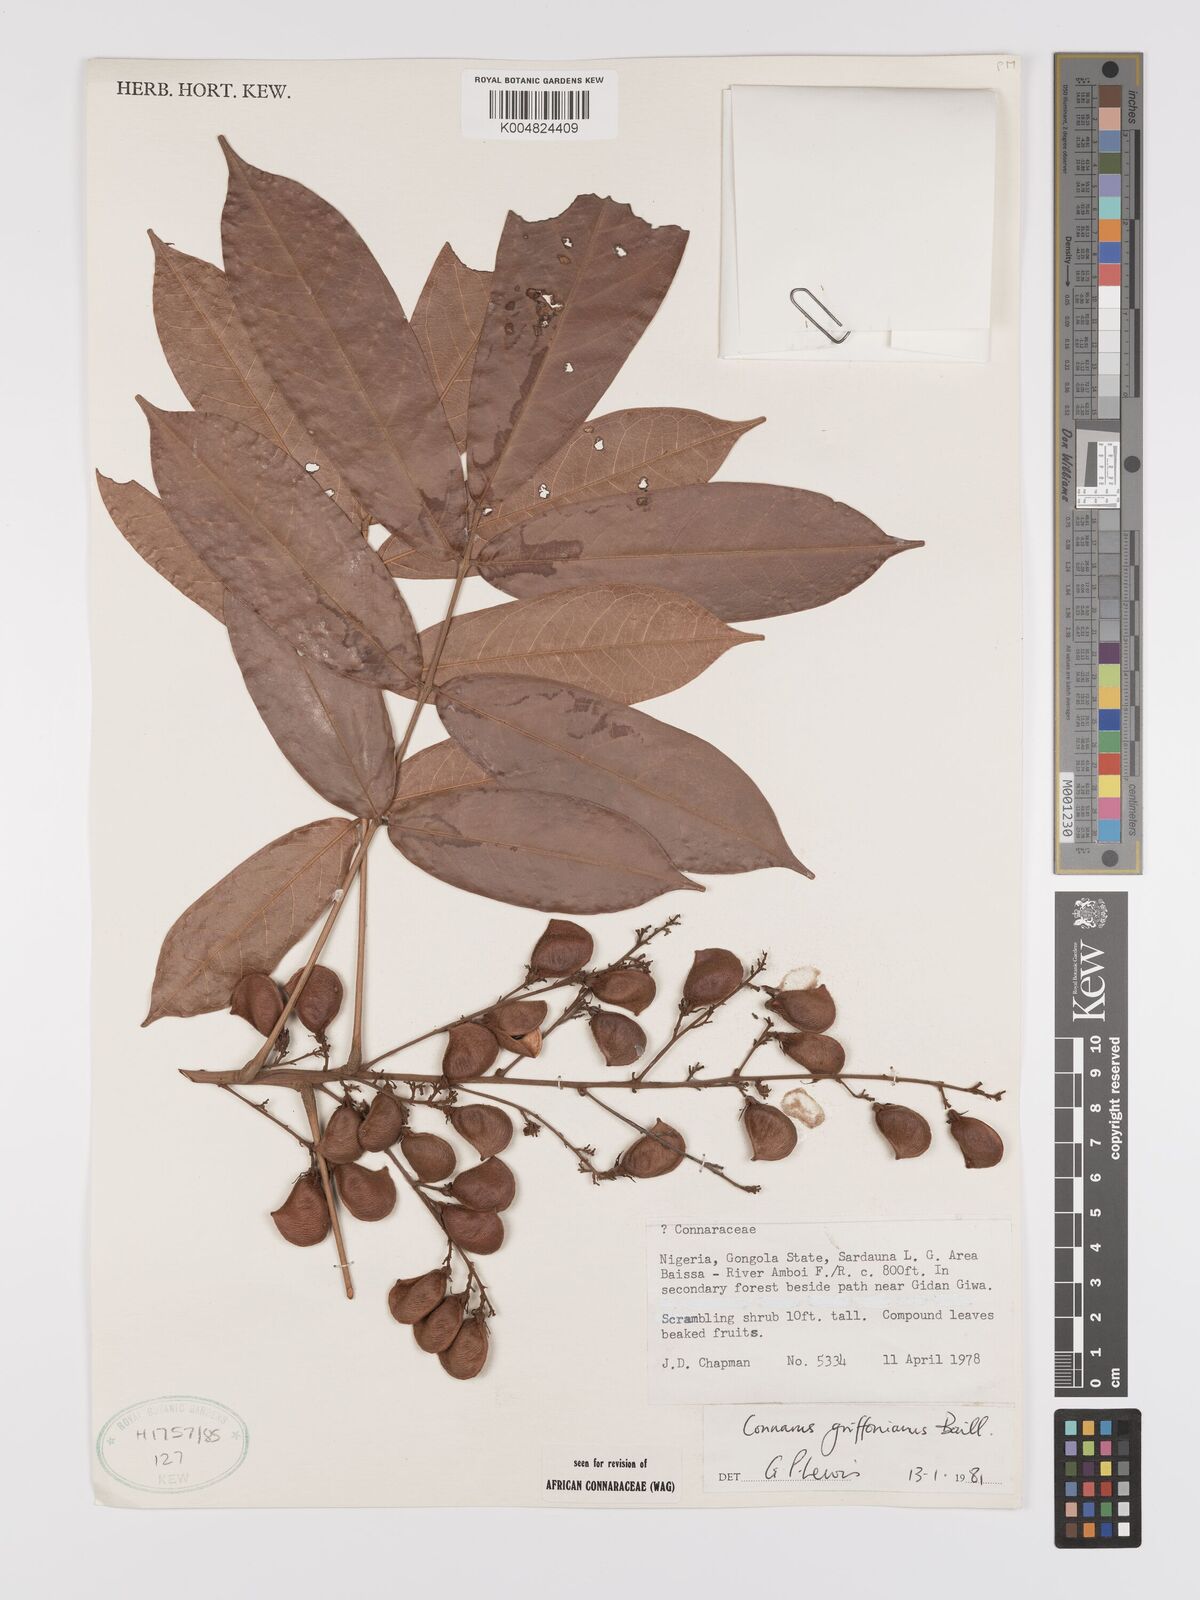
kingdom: Plantae
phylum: Tracheophyta
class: Magnoliopsida
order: Oxalidales
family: Connaraceae
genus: Connarus
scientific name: Connarus griffonianus
